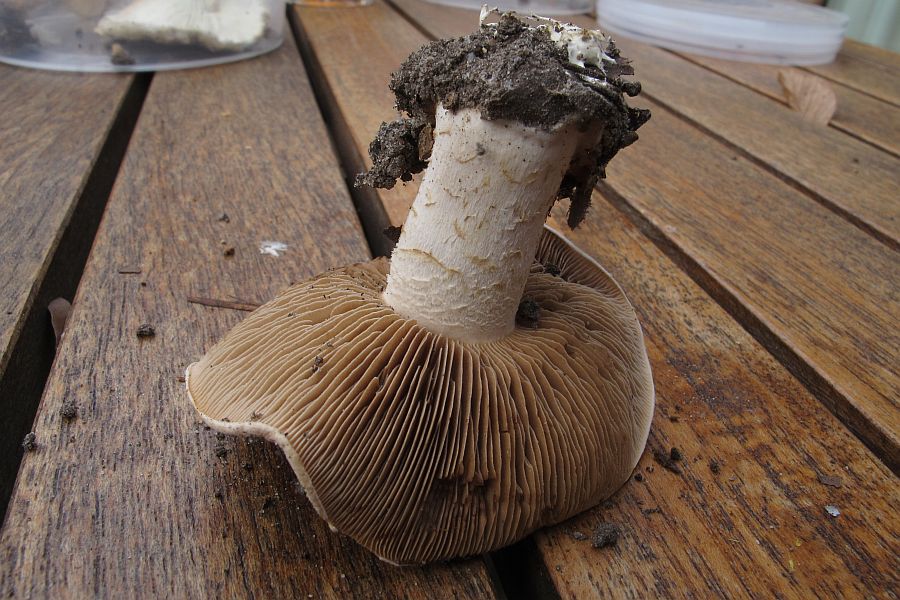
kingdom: Fungi
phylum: Basidiomycota
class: Agaricomycetes
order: Agaricales
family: Hymenogastraceae
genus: Hebeloma
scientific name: Hebeloma sinapizans
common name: ræddike-tåreblad
